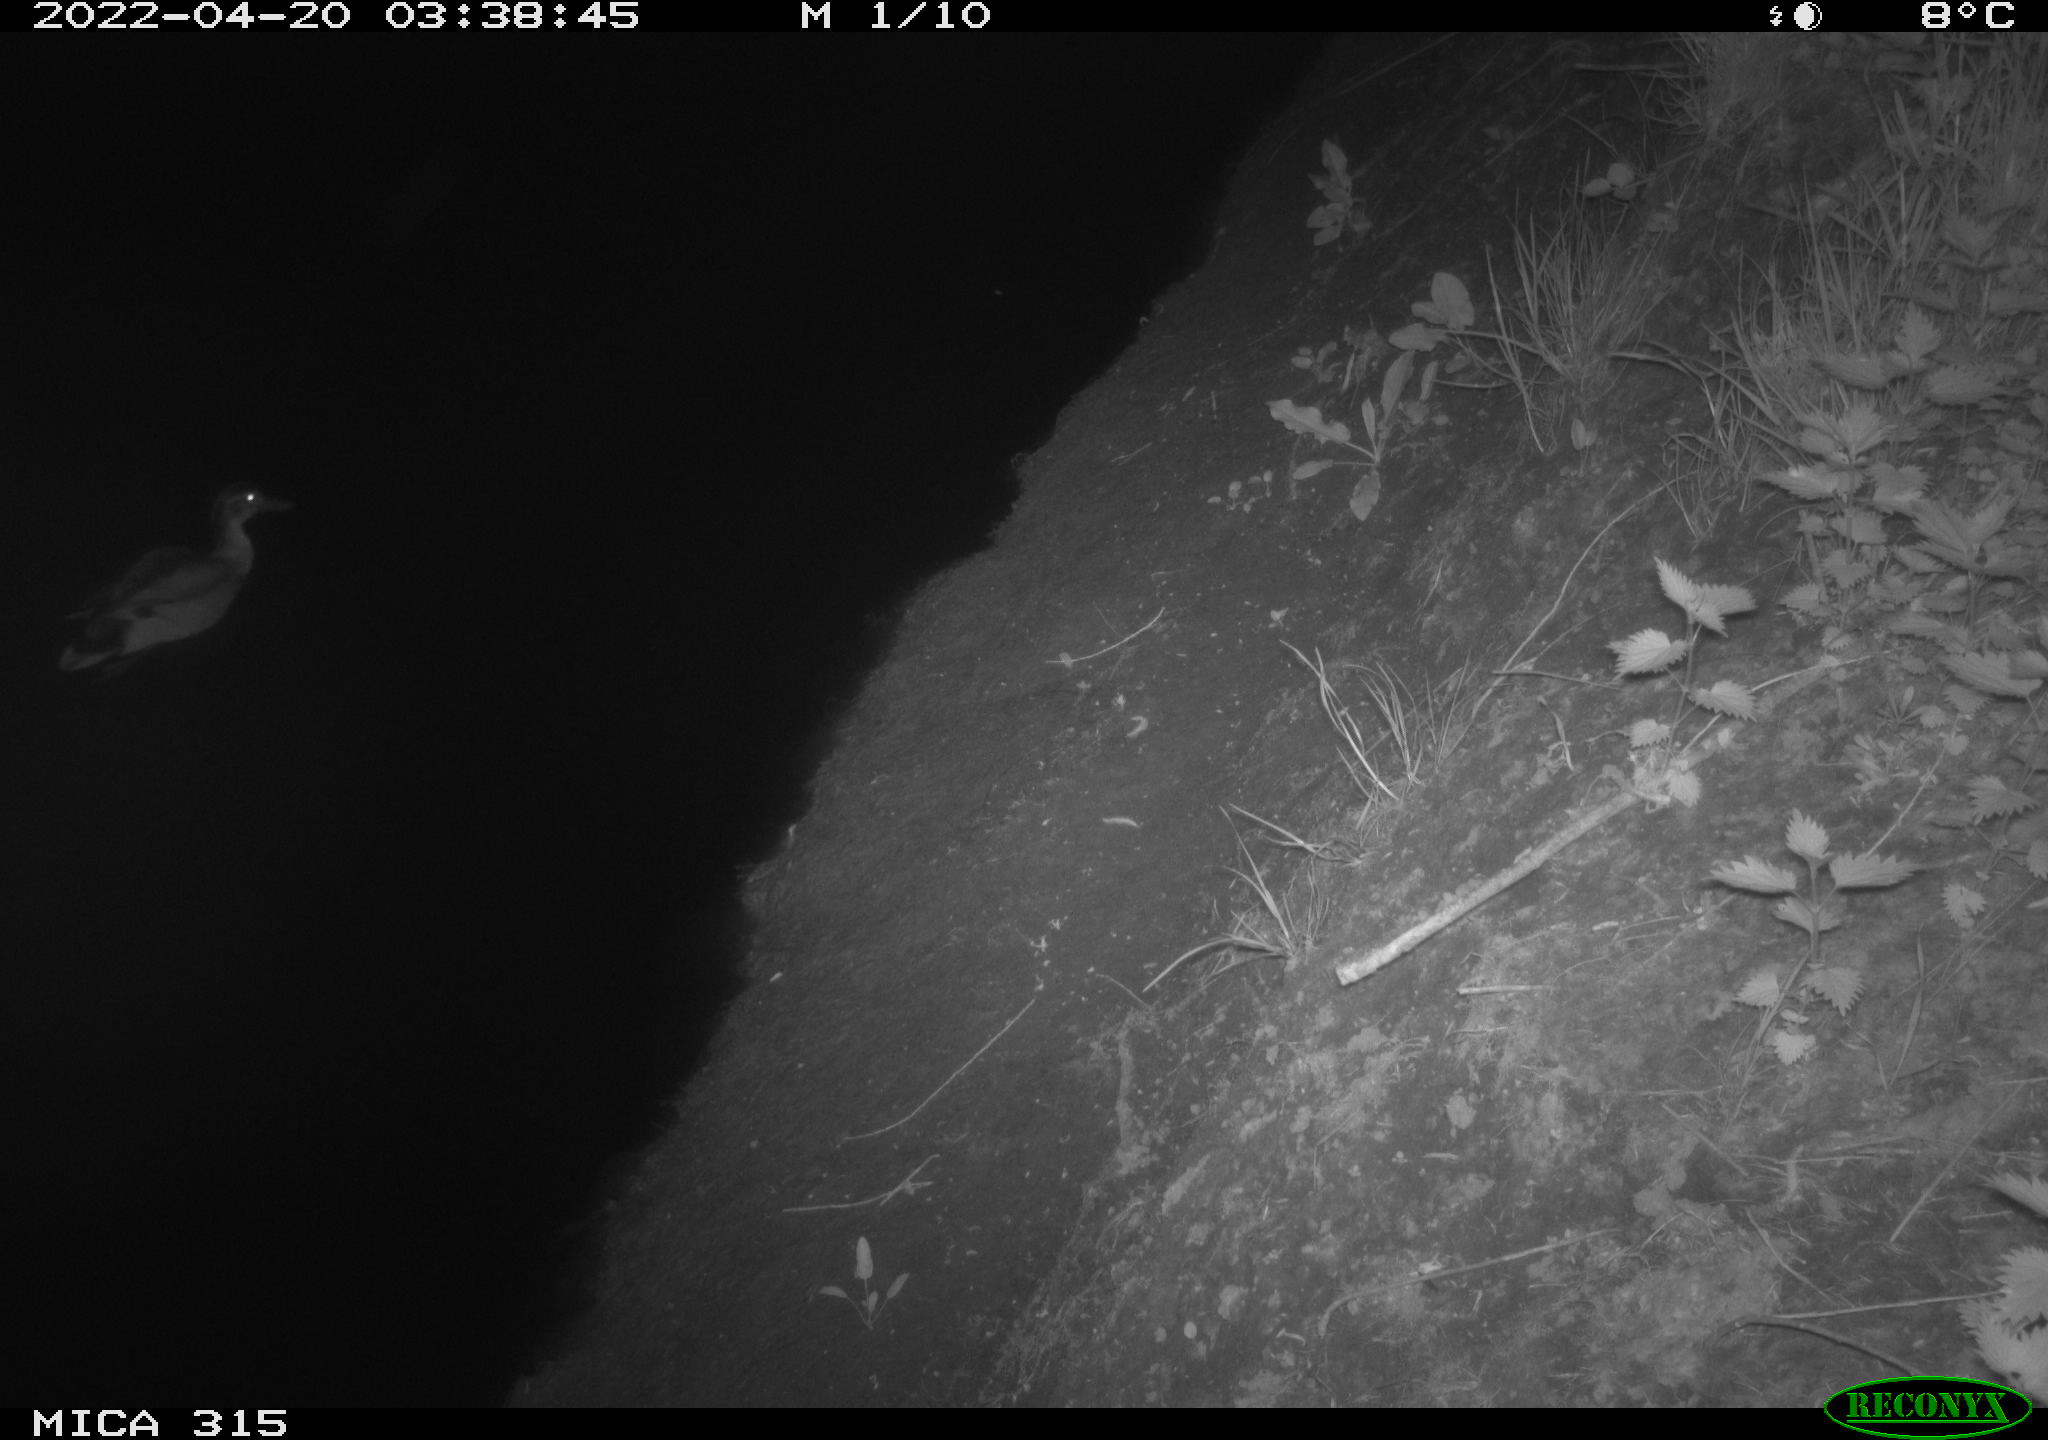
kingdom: Animalia
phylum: Chordata
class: Aves
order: Anseriformes
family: Anatidae
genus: Anas
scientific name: Anas platyrhynchos
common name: Mallard
